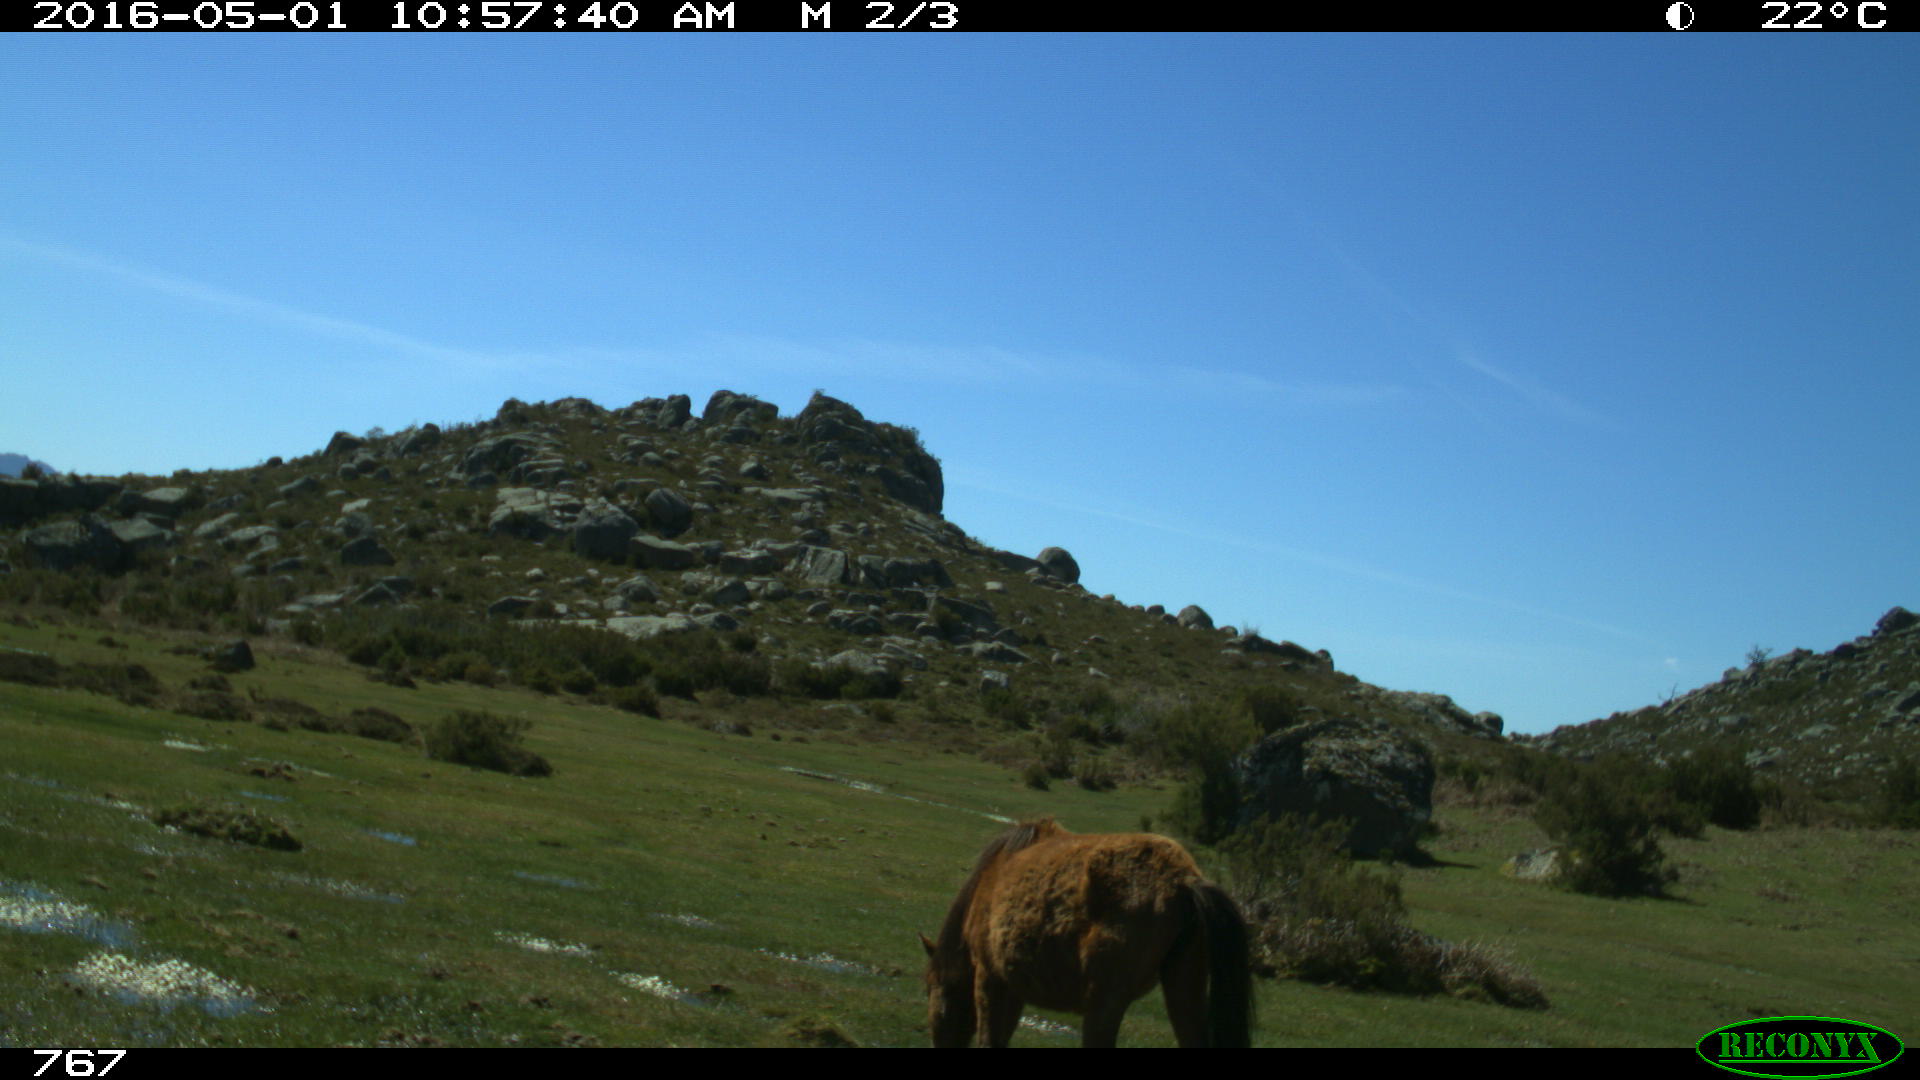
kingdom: Animalia
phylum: Chordata
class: Mammalia
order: Perissodactyla
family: Equidae
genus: Equus
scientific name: Equus caballus
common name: Horse
